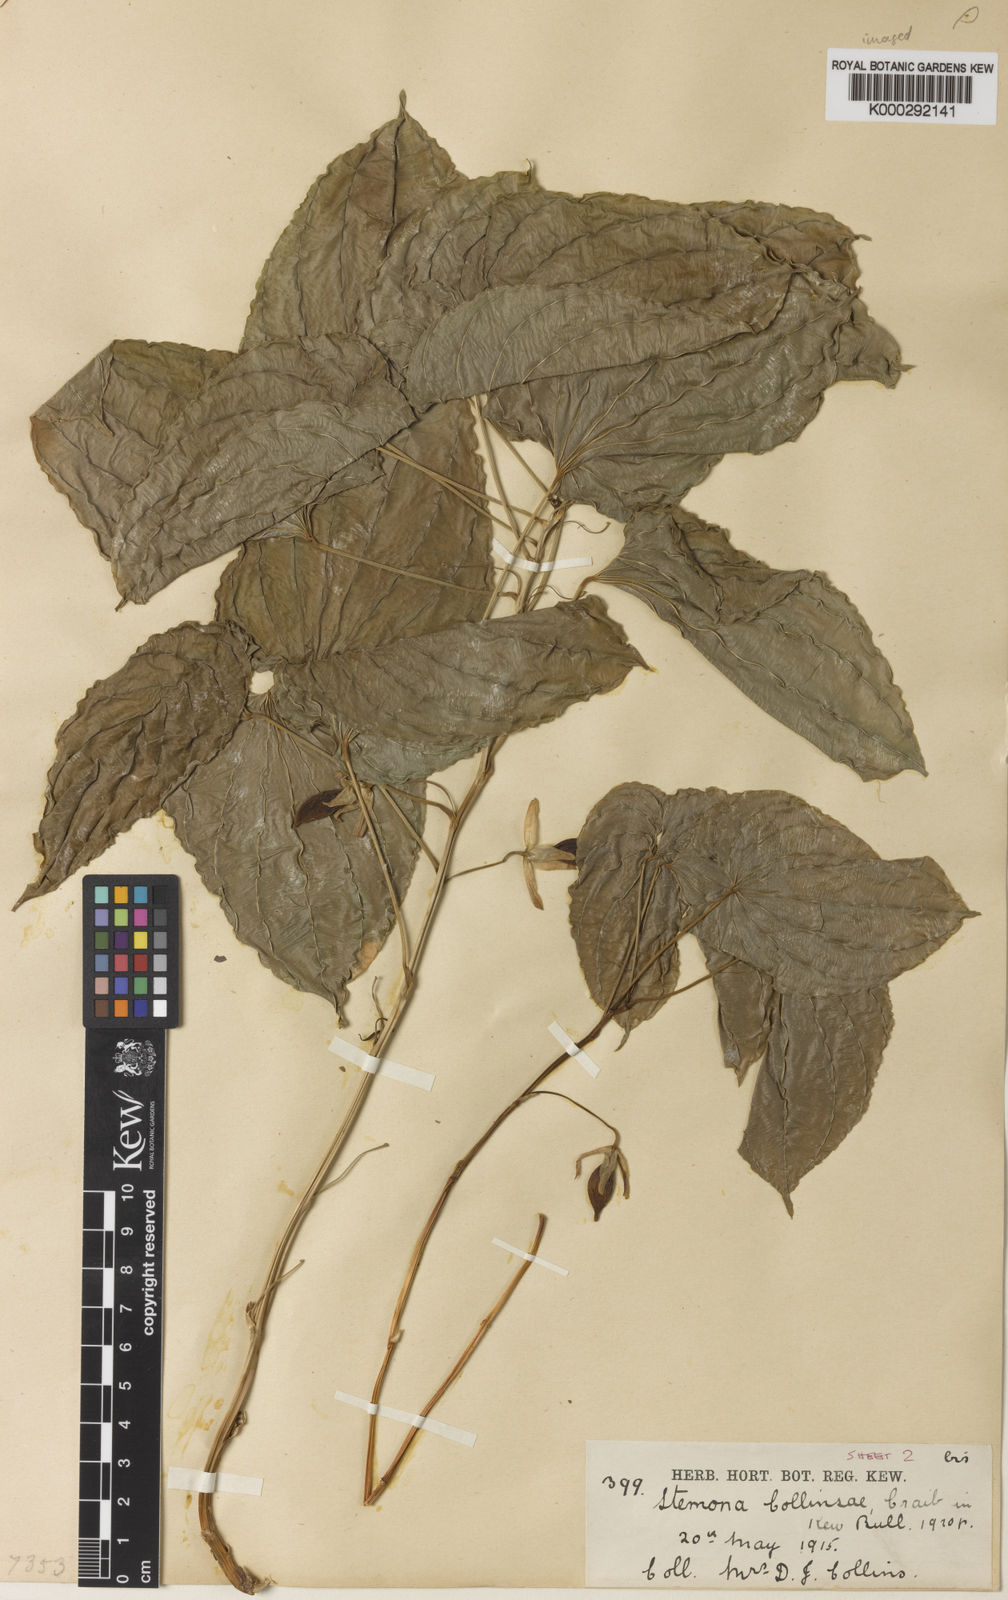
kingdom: Plantae
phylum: Tracheophyta
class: Liliopsida
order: Pandanales
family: Stemonaceae
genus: Stemona
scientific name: Stemona collinsiae
